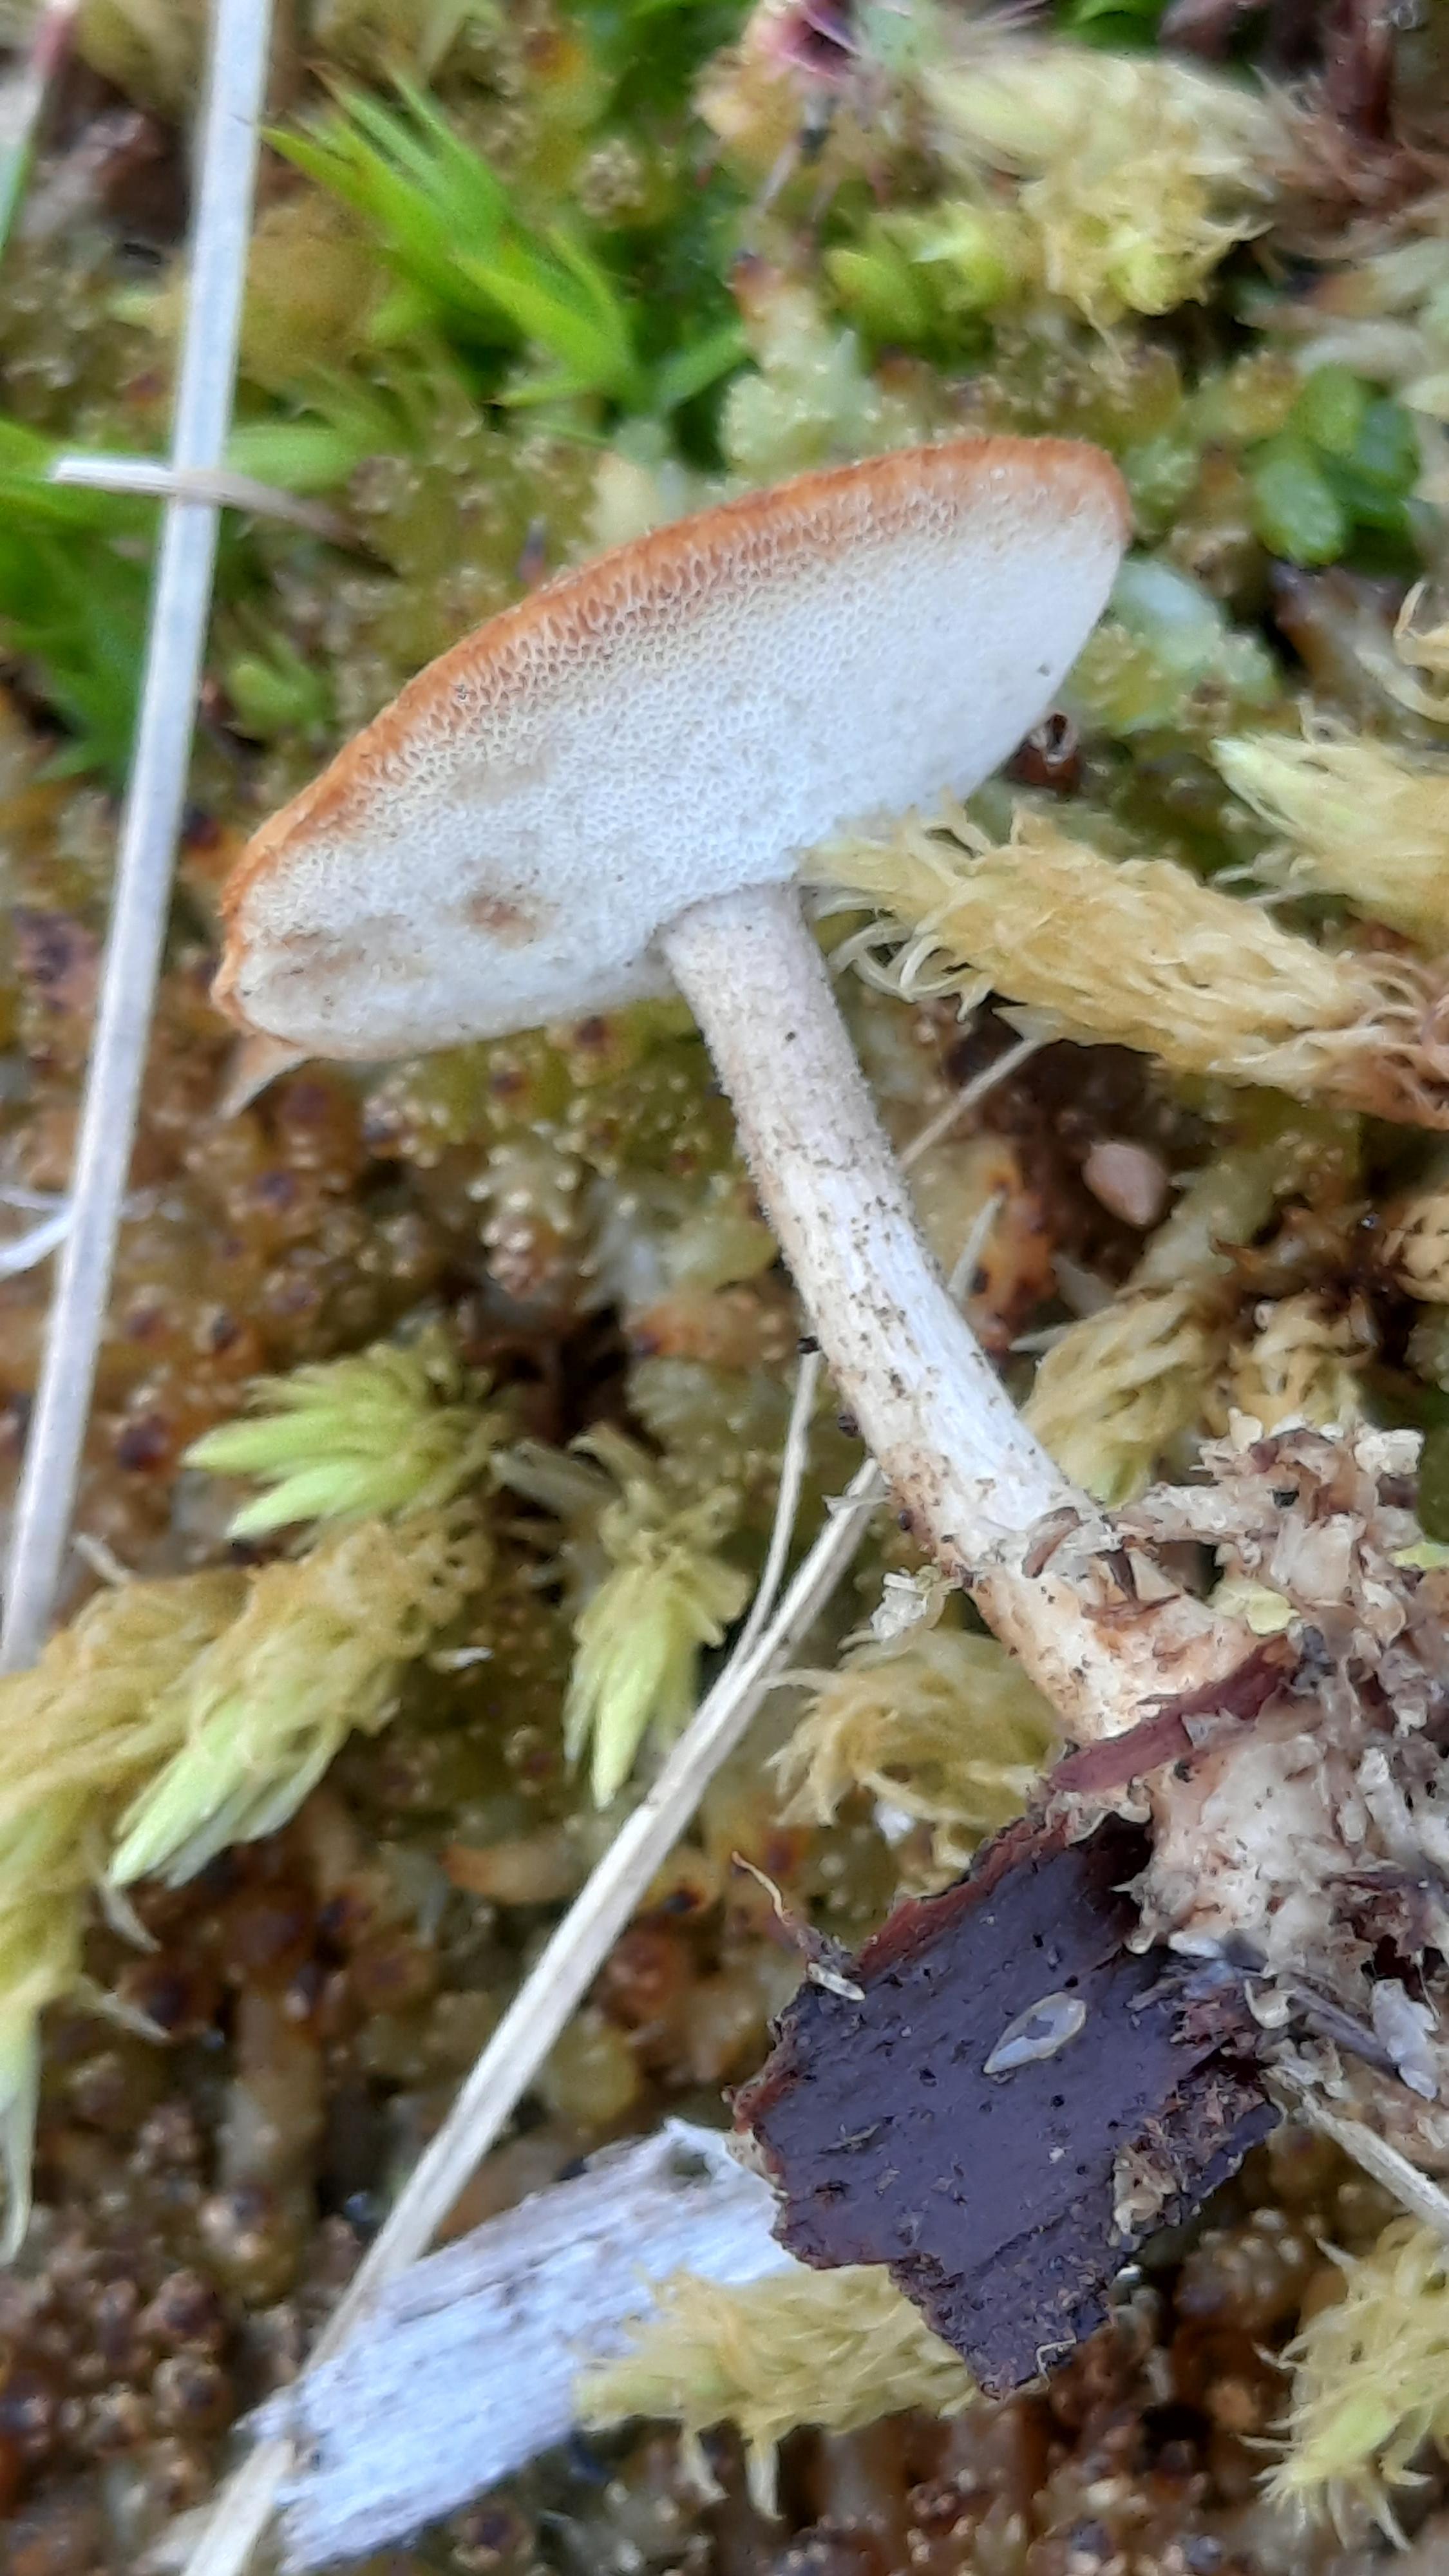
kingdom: Fungi
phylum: Basidiomycota
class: Agaricomycetes
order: Polyporales
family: Polyporaceae
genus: Lentinus
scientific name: Lentinus brumalis
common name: vinter-stilkporesvamp
